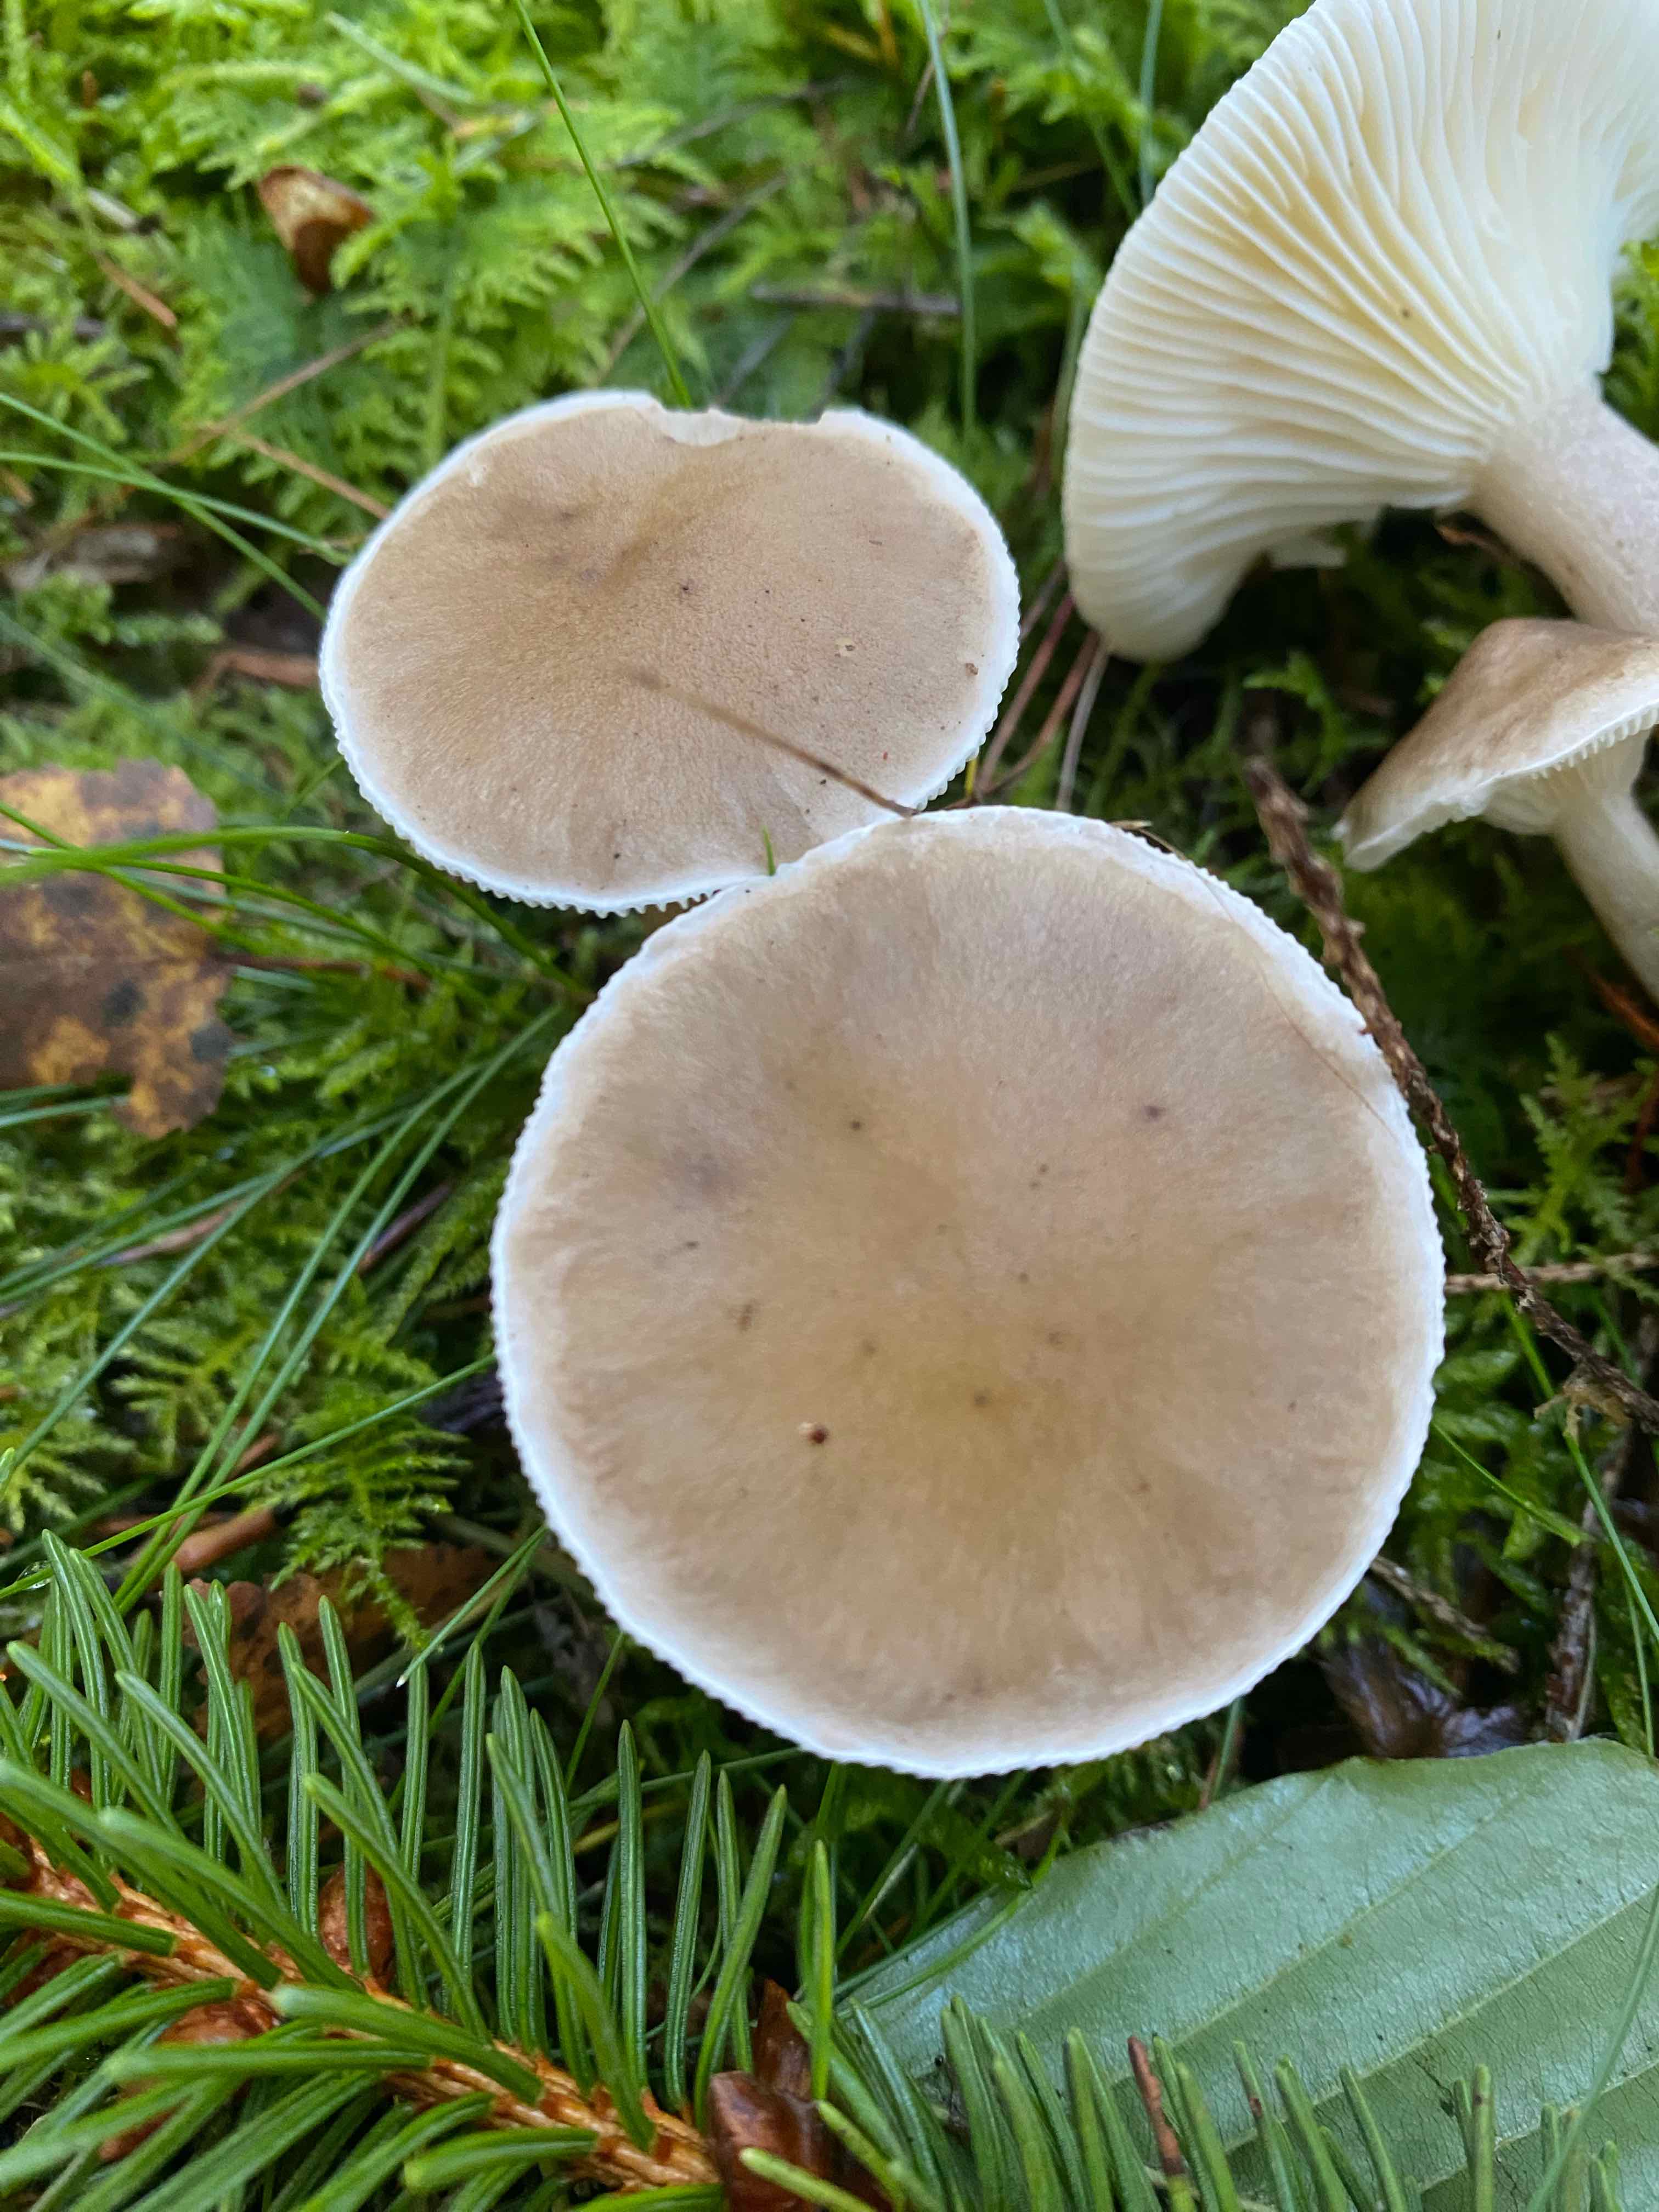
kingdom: Fungi
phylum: Basidiomycota
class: Agaricomycetes
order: Agaricales
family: Hygrophoraceae
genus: Ampulloclitocybe
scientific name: Ampulloclitocybe clavipes
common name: køllefod
